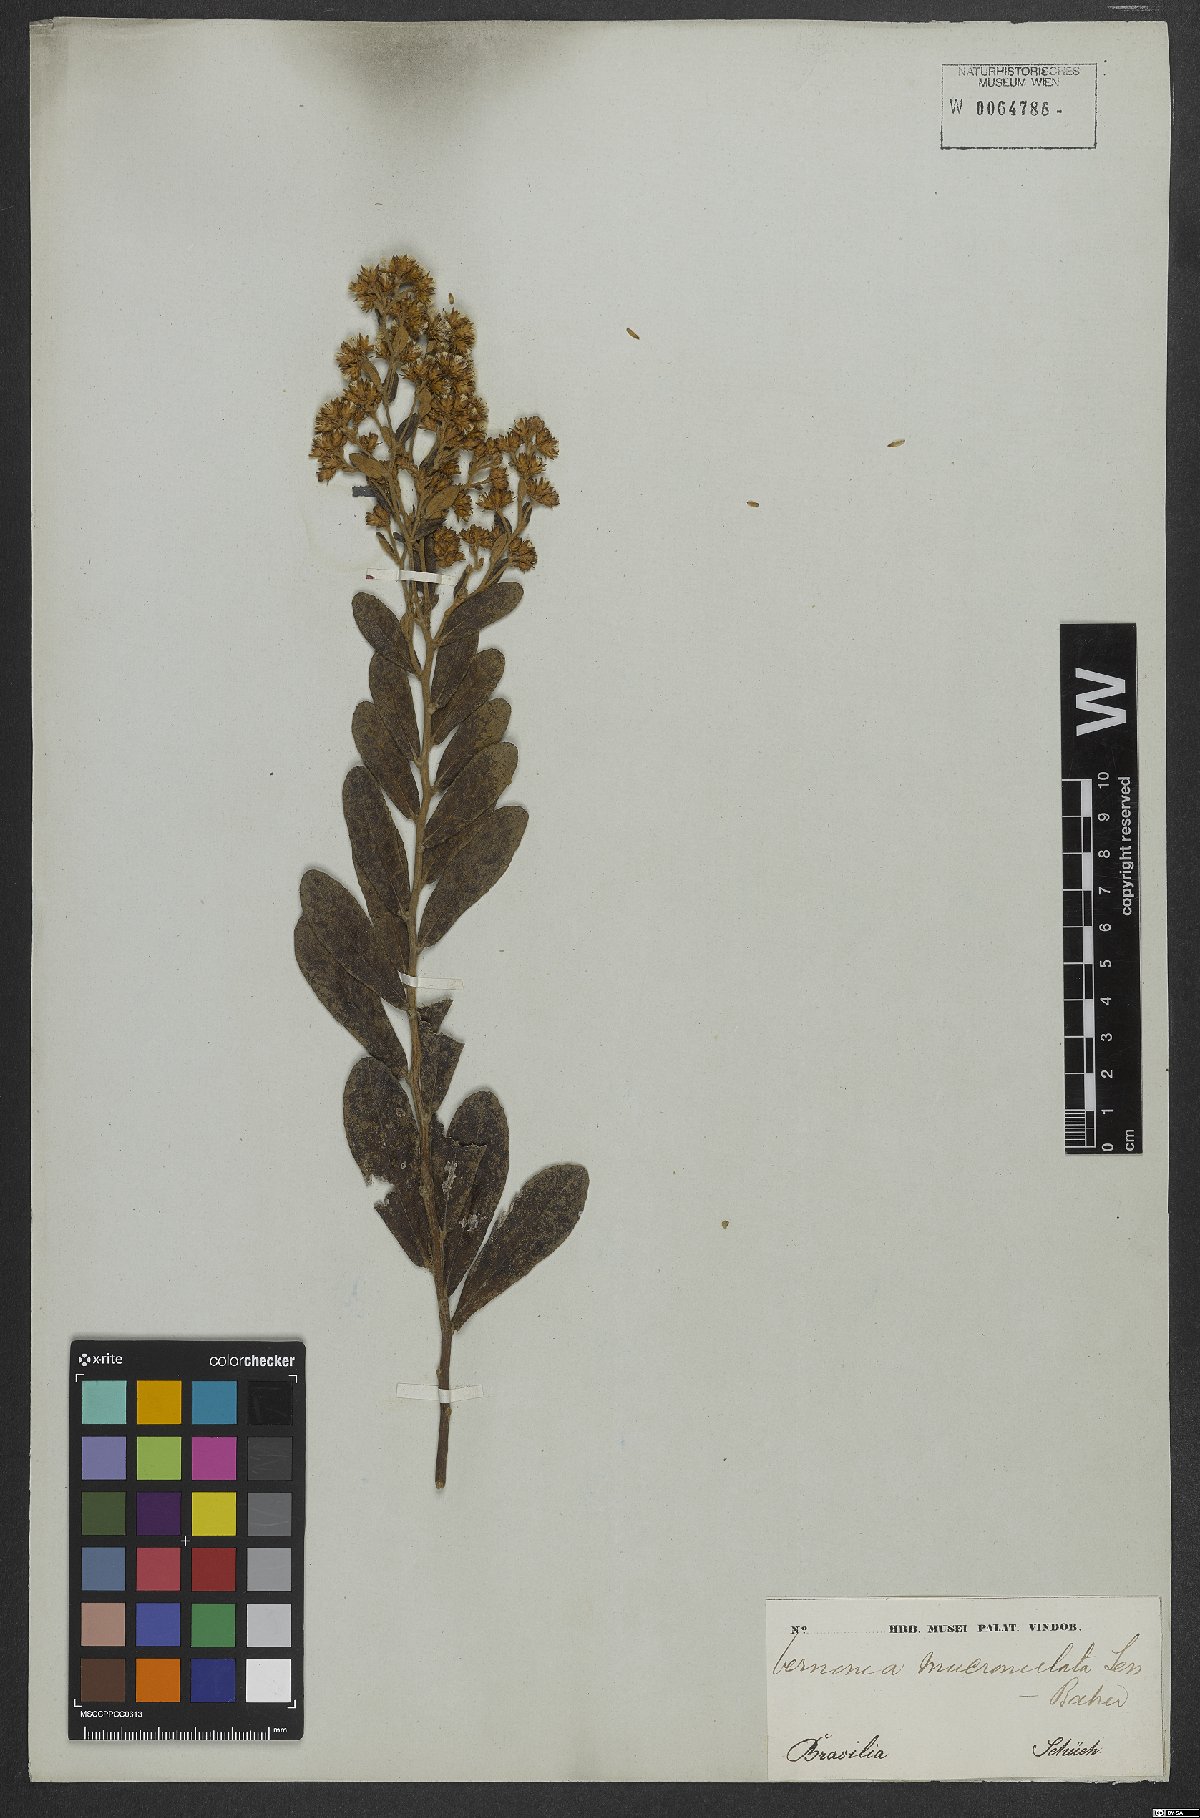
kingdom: Plantae
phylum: Tracheophyta
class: Magnoliopsida
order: Asterales
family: Asteraceae
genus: Vernonanthura
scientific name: Vernonanthura mucronulata
